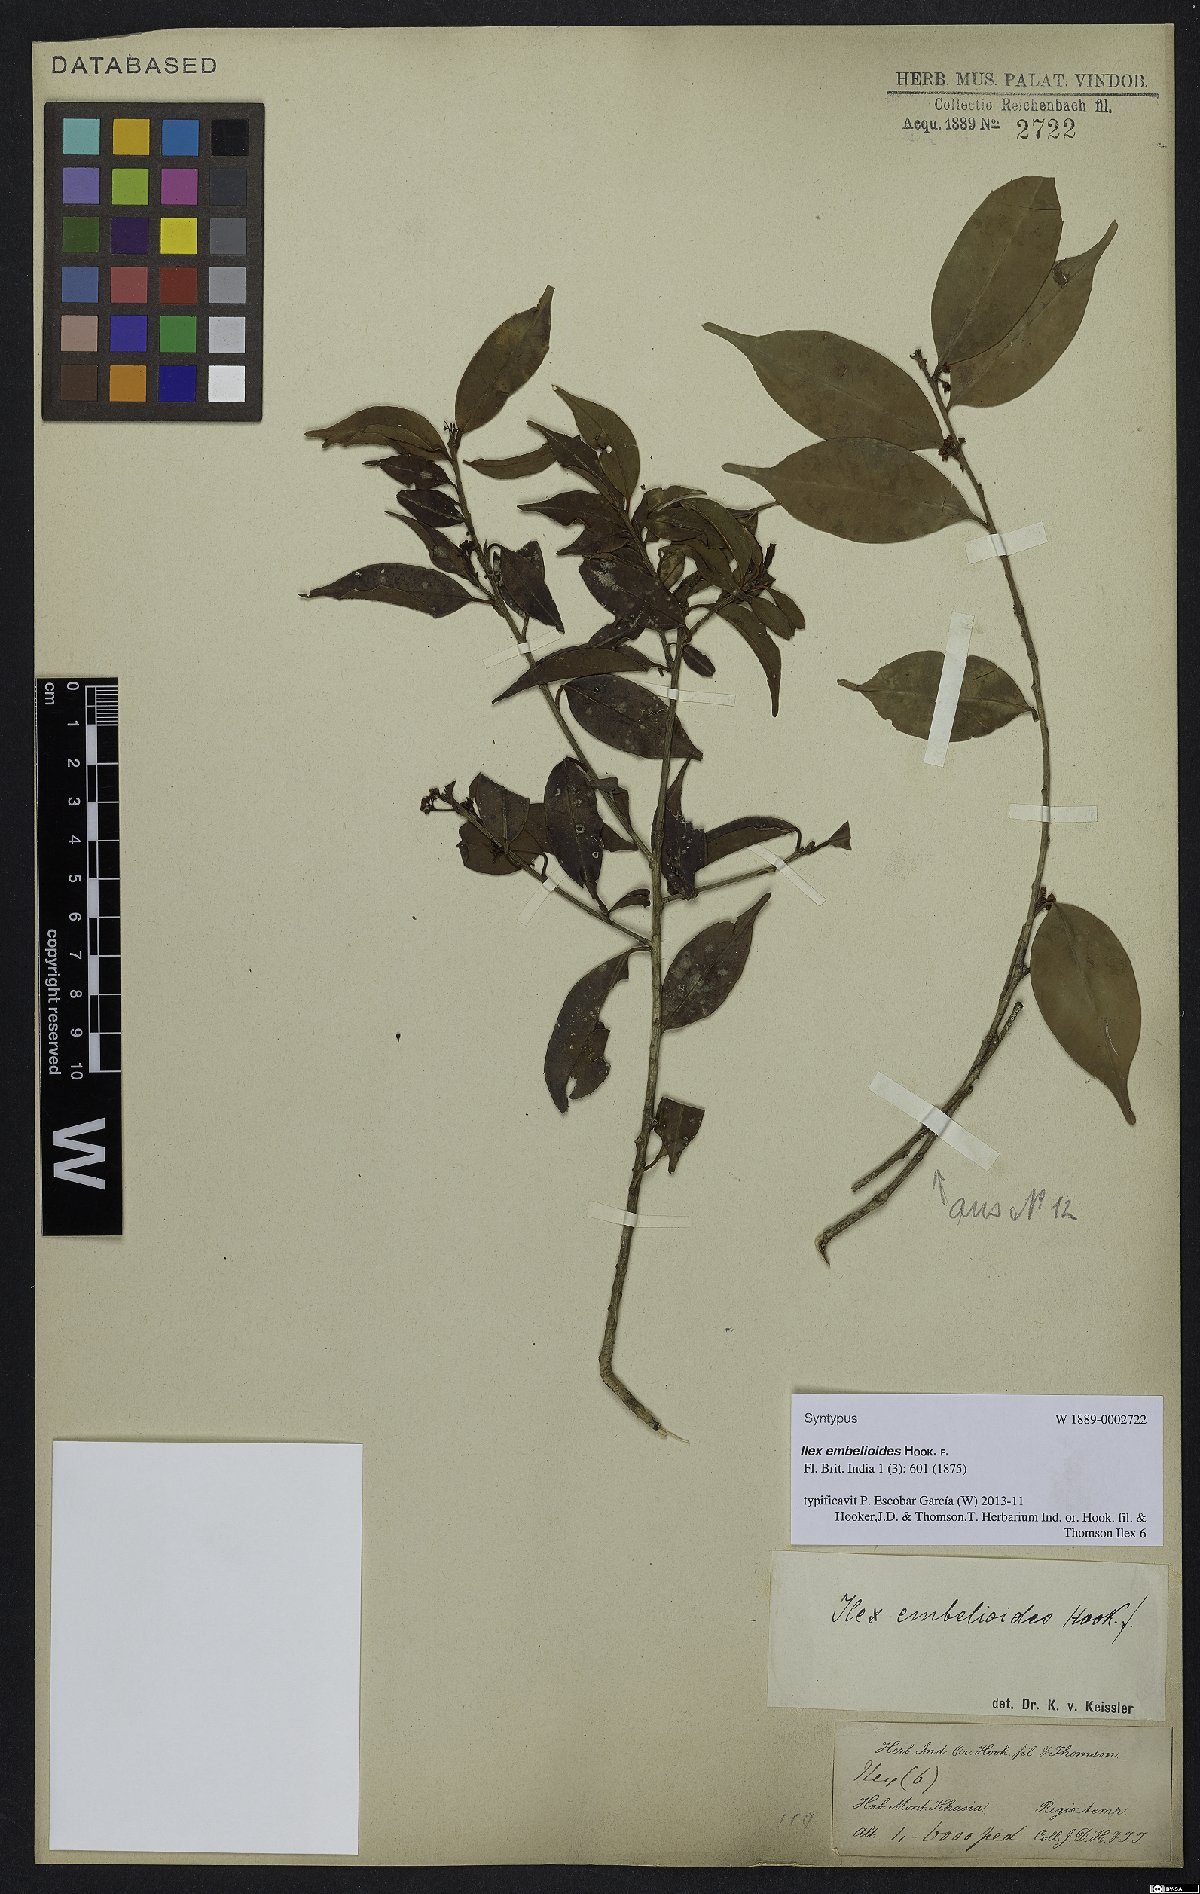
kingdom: Plantae
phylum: Tracheophyta
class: Magnoliopsida
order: Aquifoliales
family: Aquifoliaceae
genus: Ilex
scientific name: Ilex embelioides
